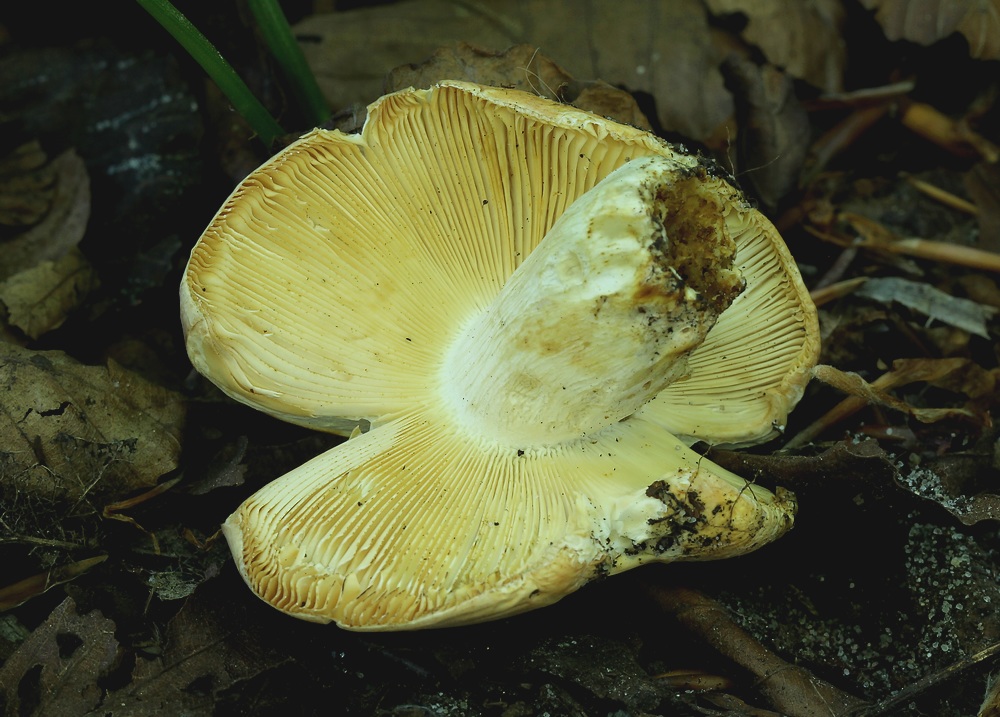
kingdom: Fungi
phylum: Basidiomycota
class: Agaricomycetes
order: Russulales
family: Russulaceae
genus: Russula
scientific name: Russula
